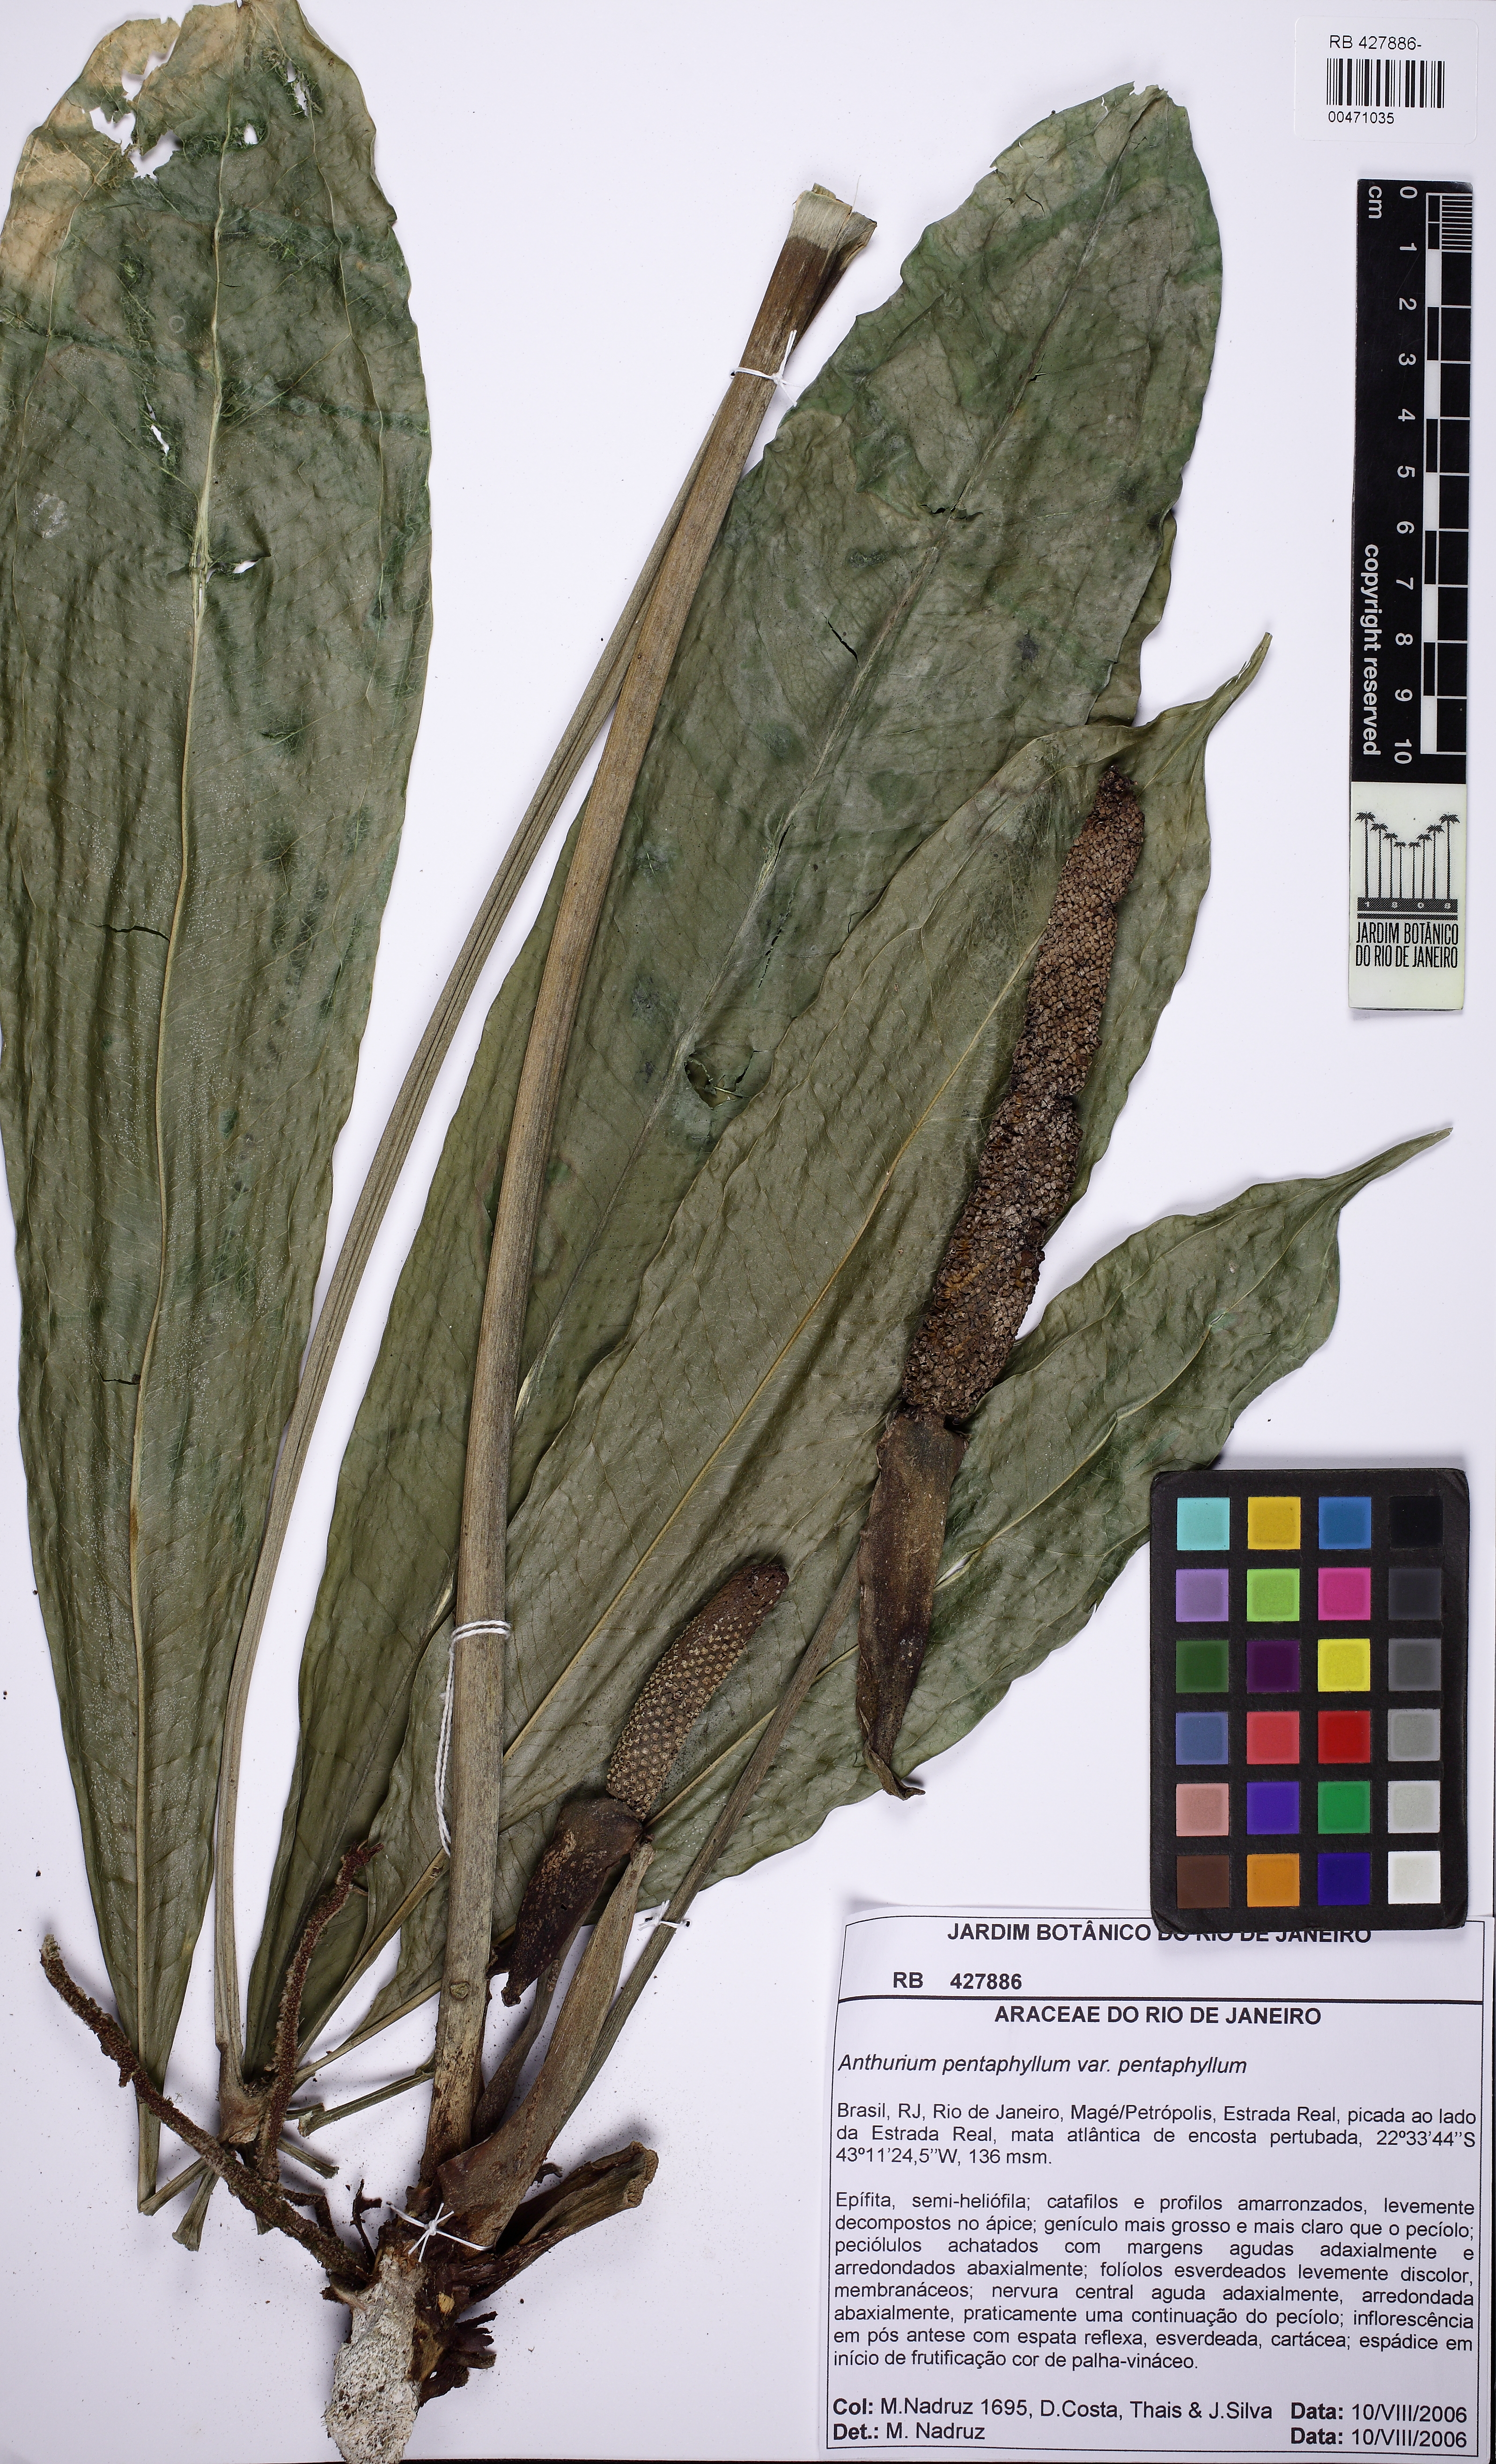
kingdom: Plantae
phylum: Tracheophyta
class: Liliopsida
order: Alismatales
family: Araceae
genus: Anthurium
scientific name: Anthurium pentaphyllum
